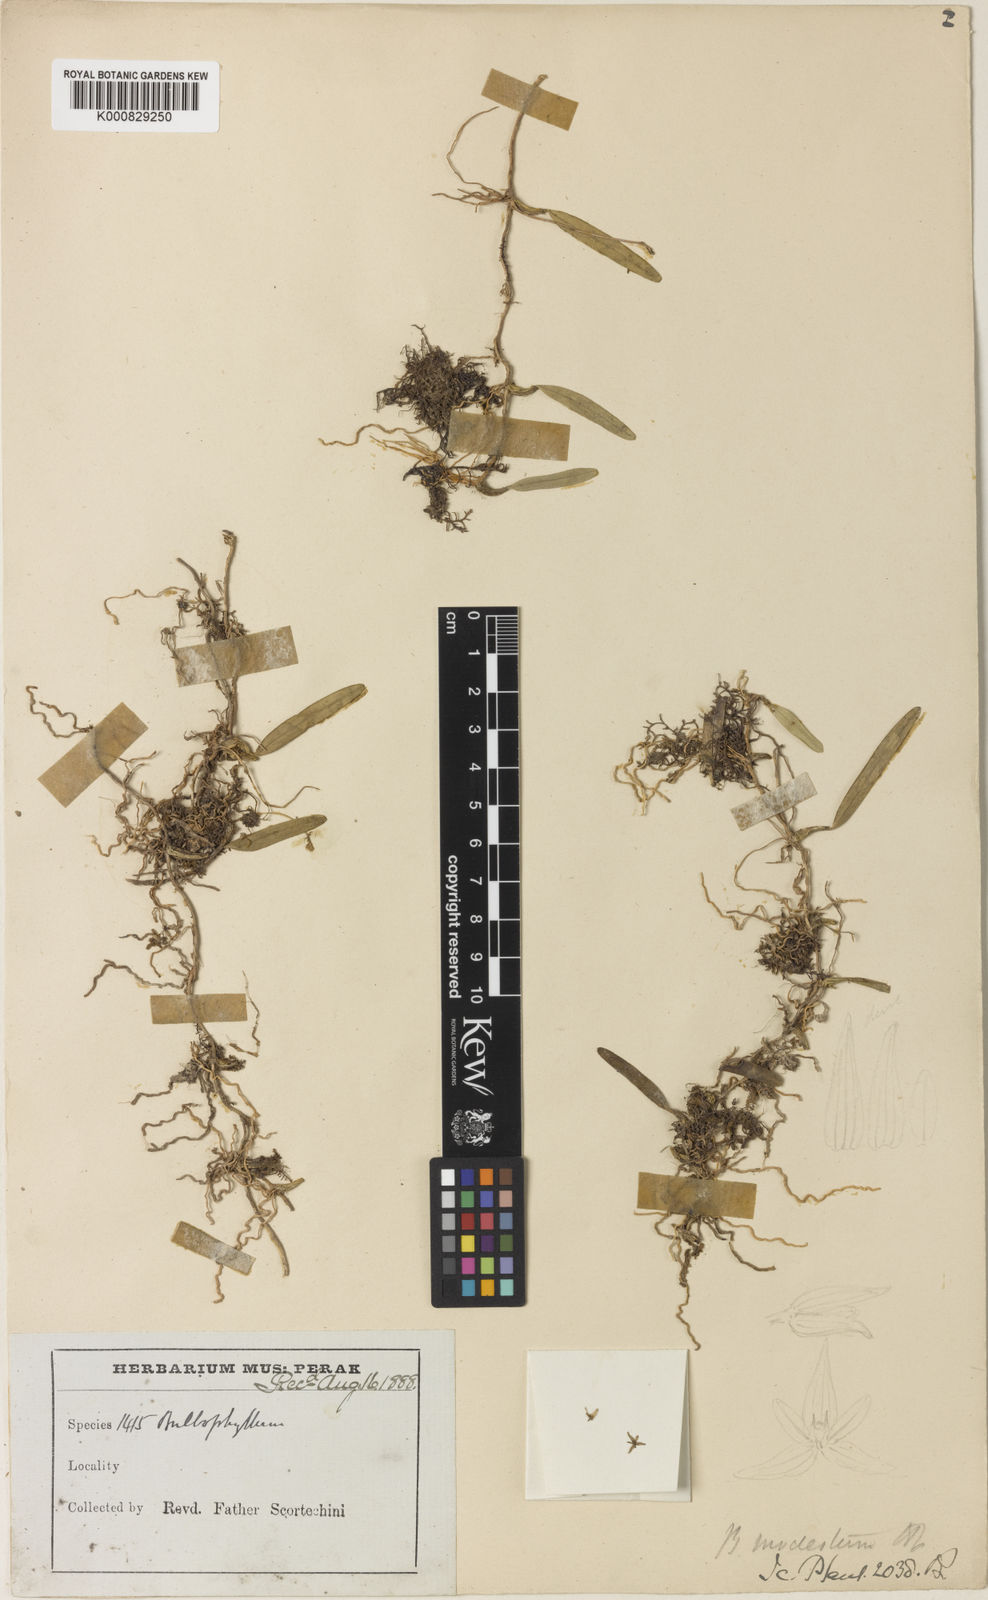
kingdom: Plantae
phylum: Tracheophyta
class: Liliopsida
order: Asparagales
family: Orchidaceae
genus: Bulbophyllum
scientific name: Bulbophyllum sulcatum
